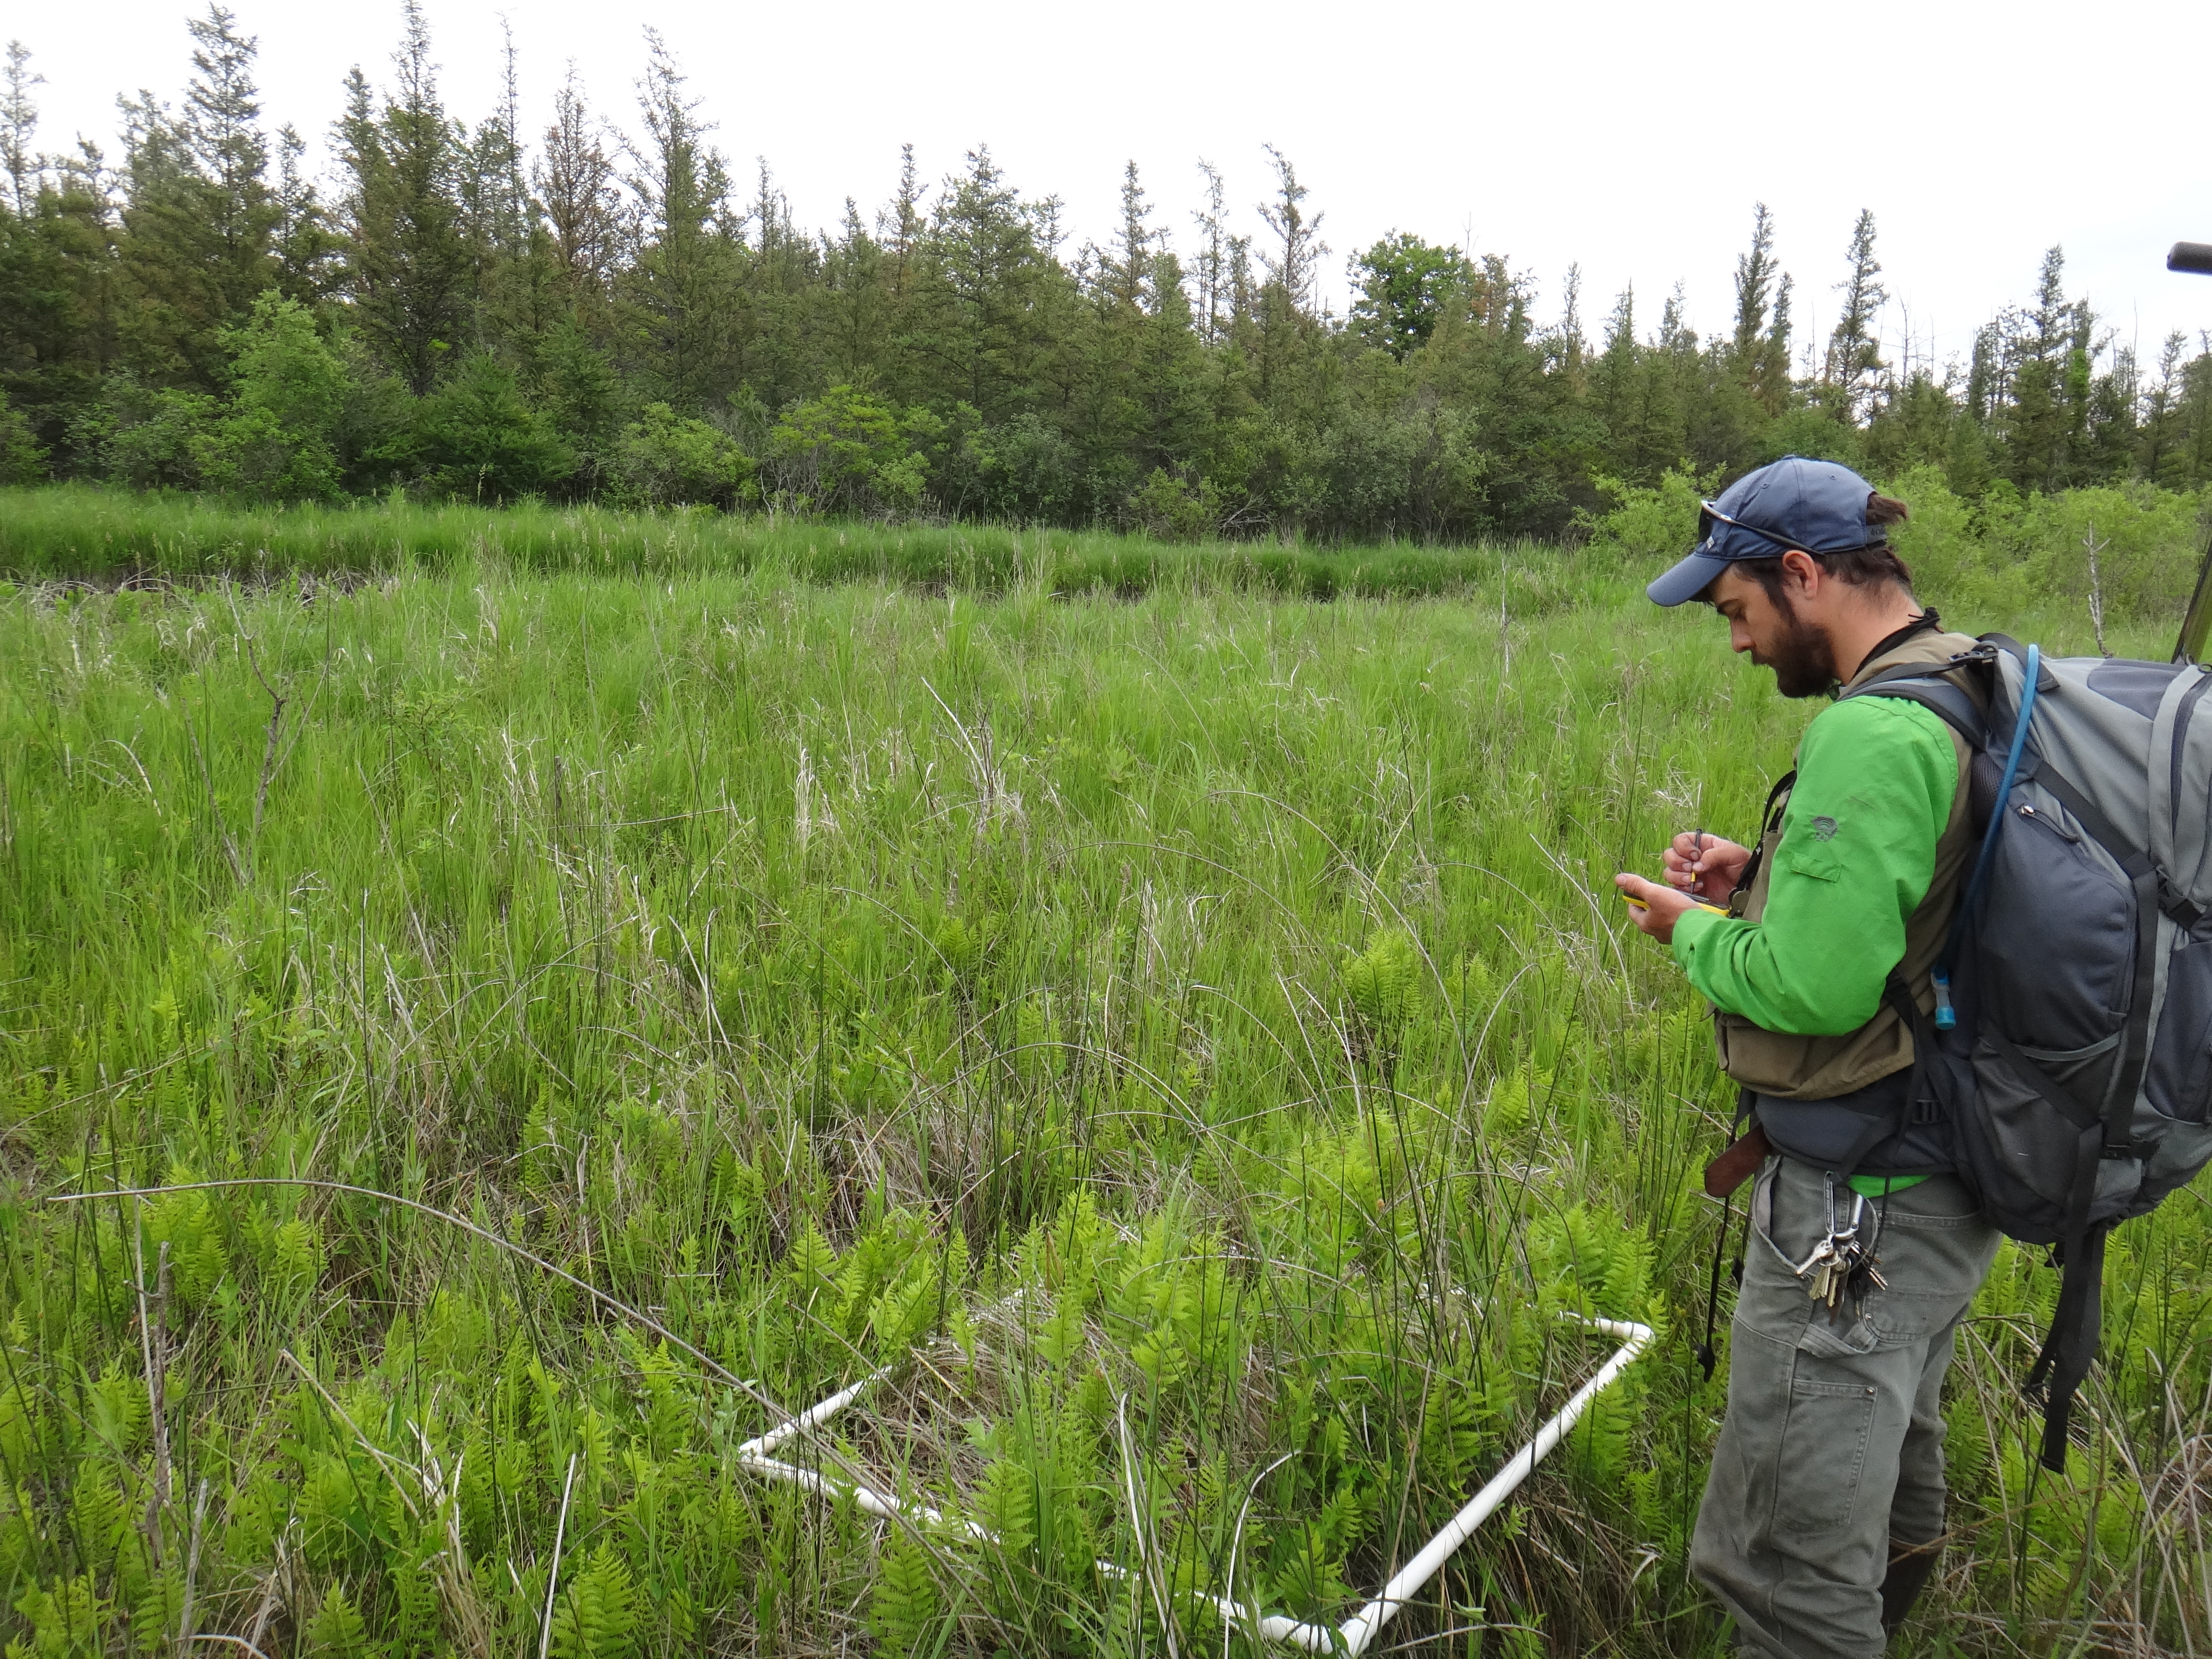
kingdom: Plantae
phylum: Tracheophyta
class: Liliopsida
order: Poales
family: Cyperaceae
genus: Schoenoplectus
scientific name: Schoenoplectus acutus
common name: Hardstem bulrush
